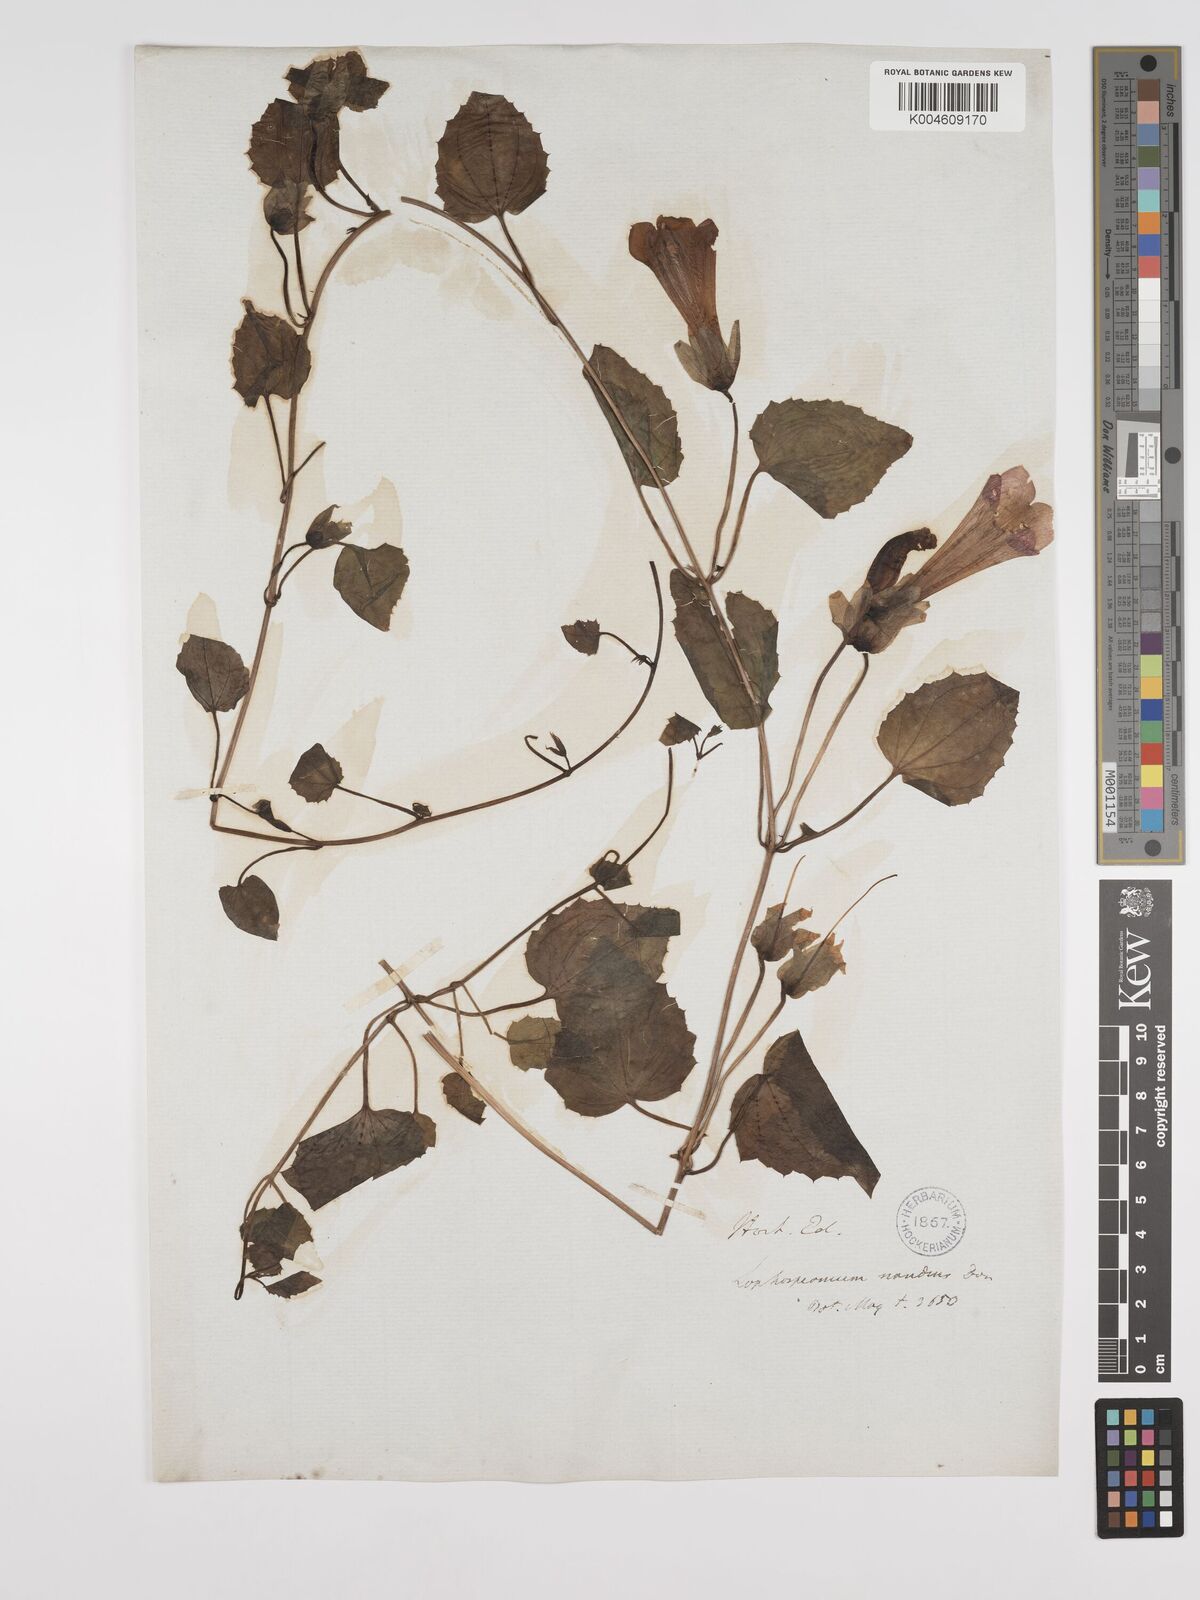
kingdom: Plantae
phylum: Tracheophyta
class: Magnoliopsida
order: Lamiales
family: Plantaginaceae
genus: Lophospermum
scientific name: Lophospermum erubescens
